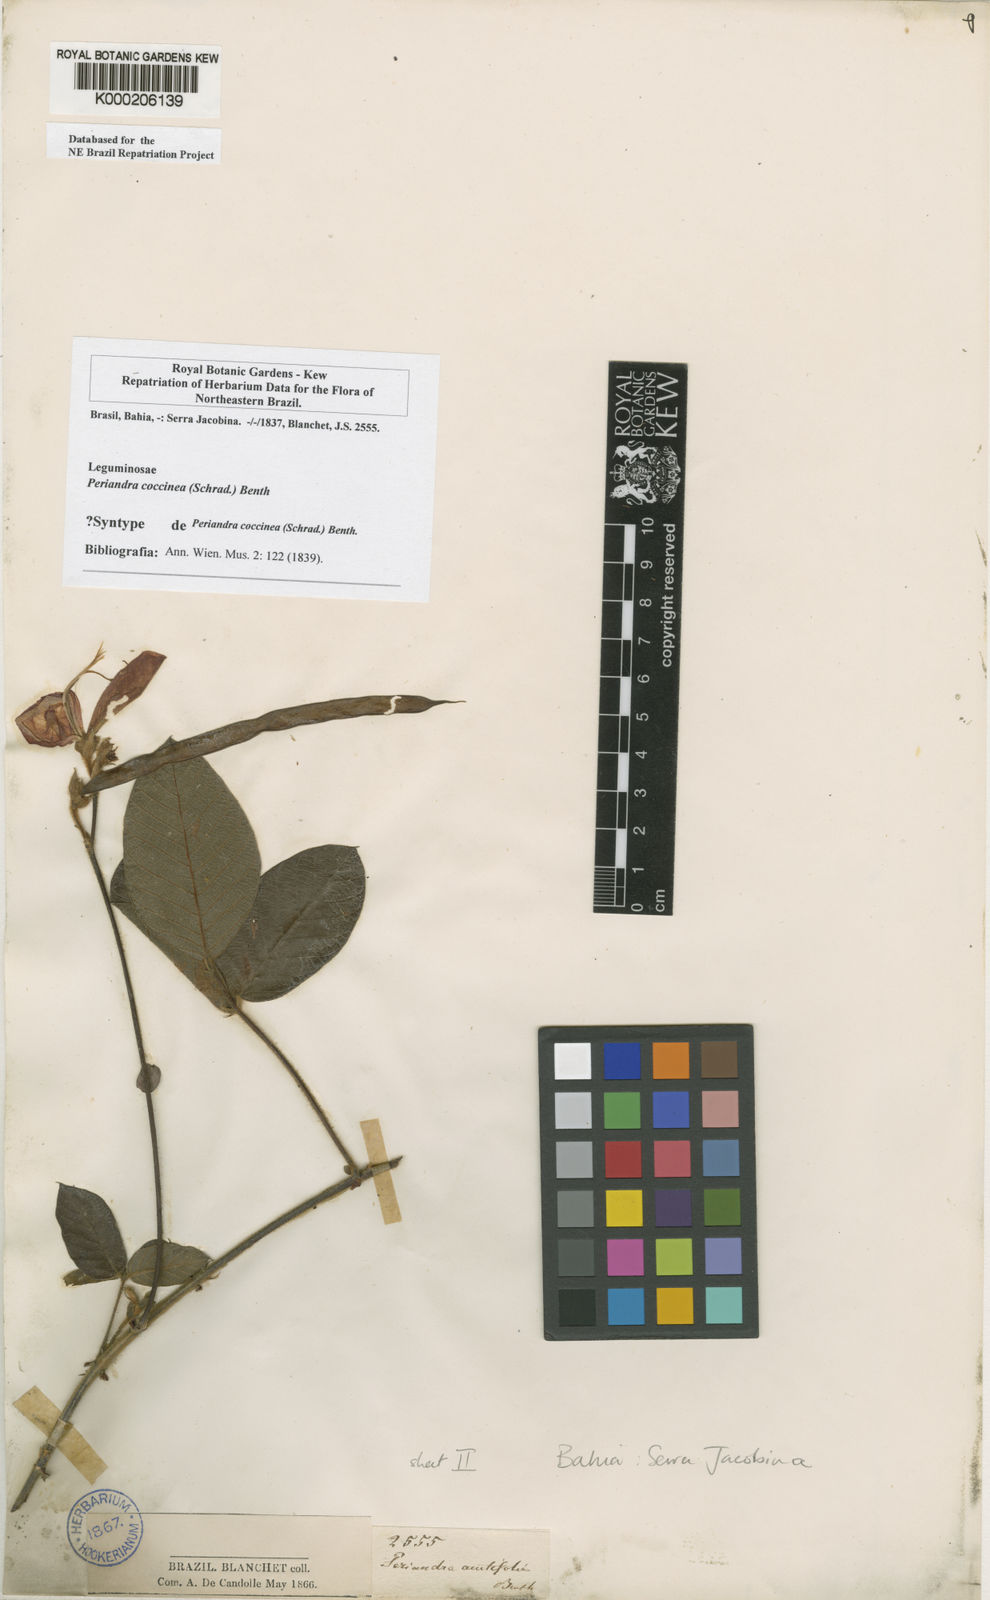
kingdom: Plantae
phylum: Tracheophyta
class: Magnoliopsida
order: Fabales
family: Fabaceae
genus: Periandra
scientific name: Periandra coccinea
